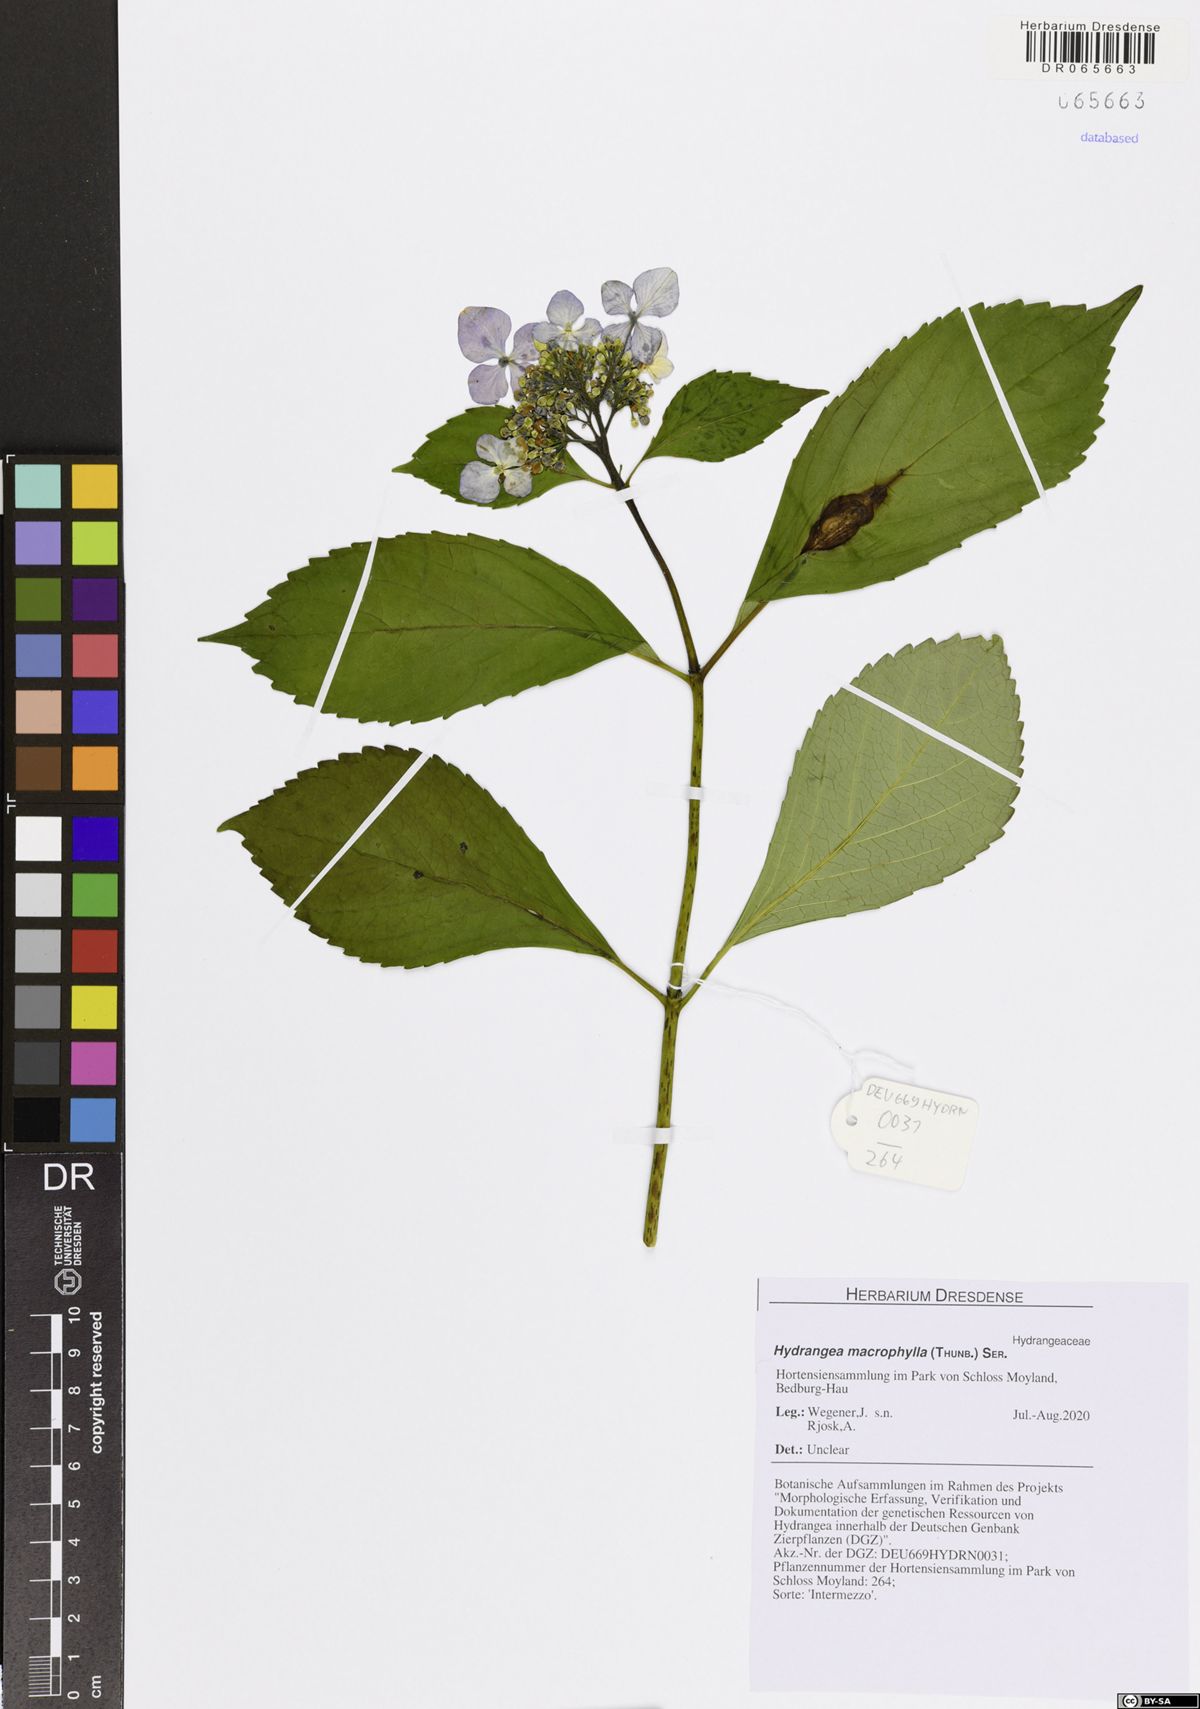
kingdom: Plantae
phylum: Tracheophyta
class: Magnoliopsida
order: Cornales
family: Hydrangeaceae
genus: Hydrangea
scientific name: Hydrangea macrophylla
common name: Hydrangea
